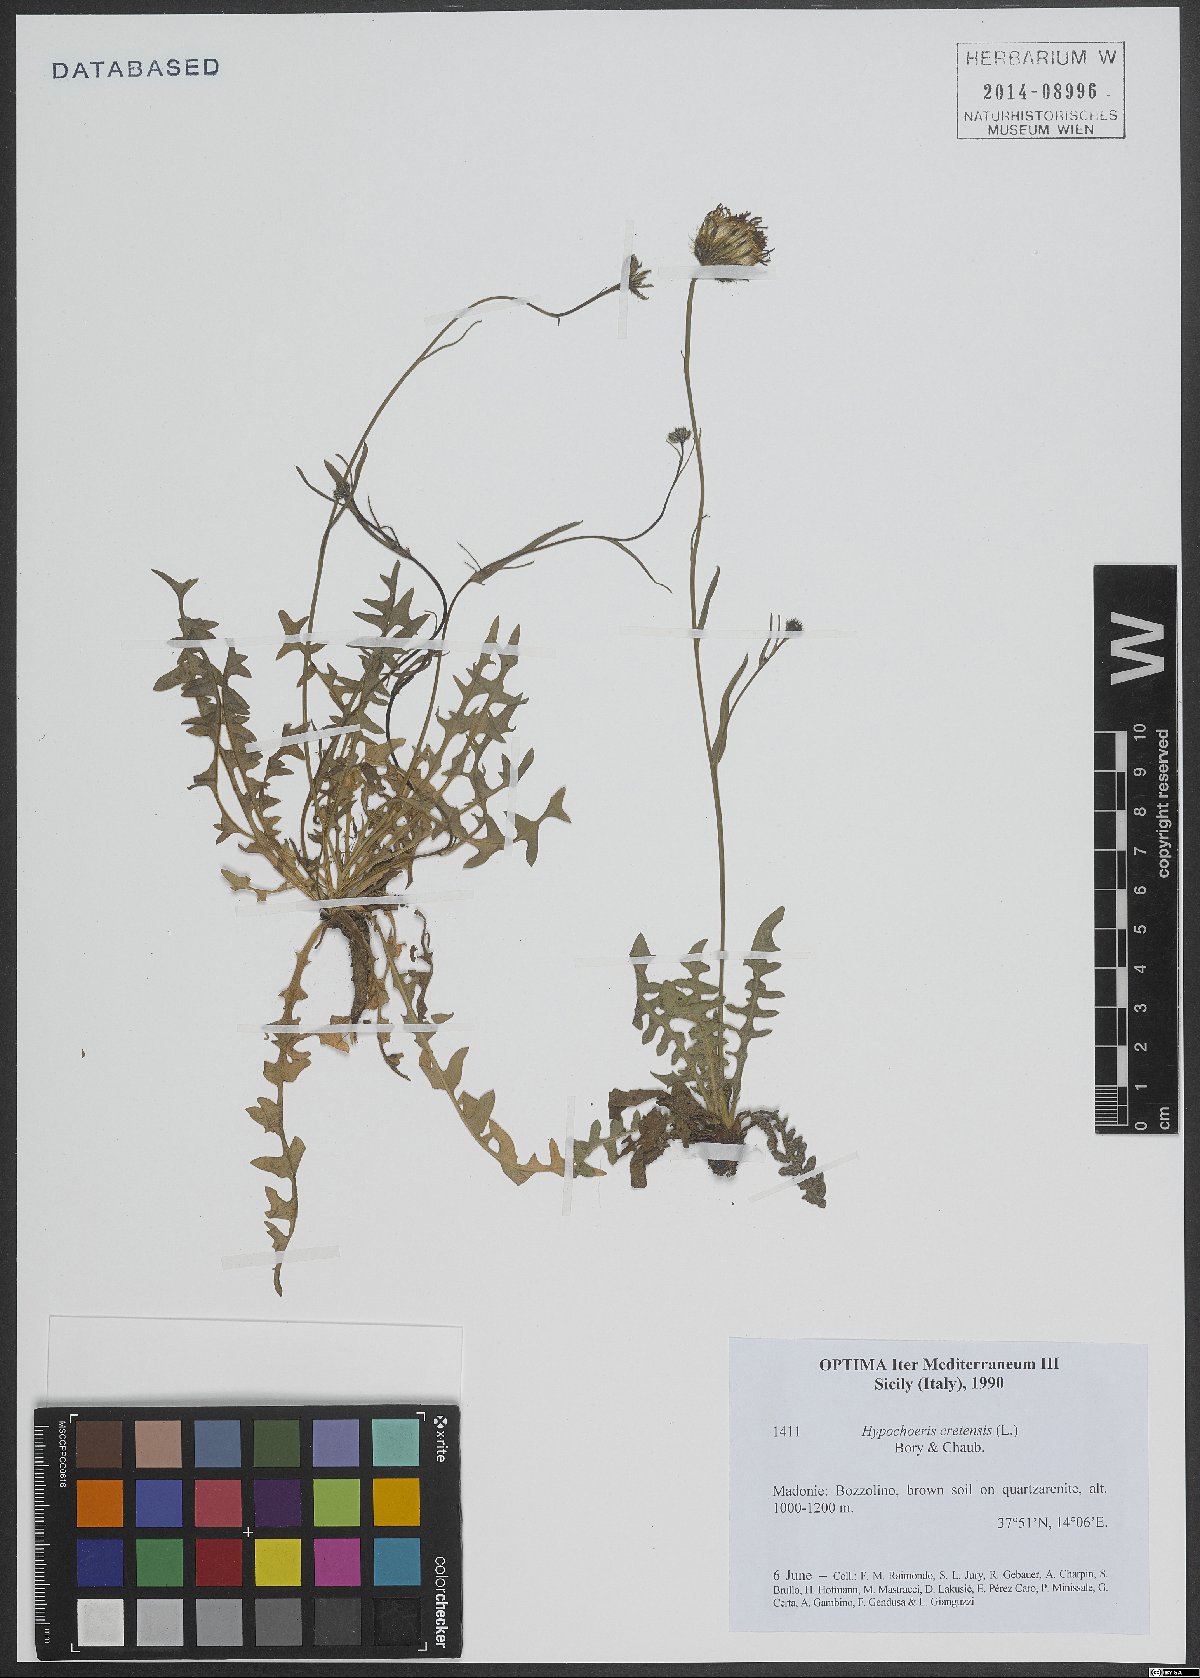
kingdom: Plantae
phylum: Tracheophyta
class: Magnoliopsida
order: Asterales
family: Asteraceae
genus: Hypochaeris
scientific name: Hypochaeris cretensis
